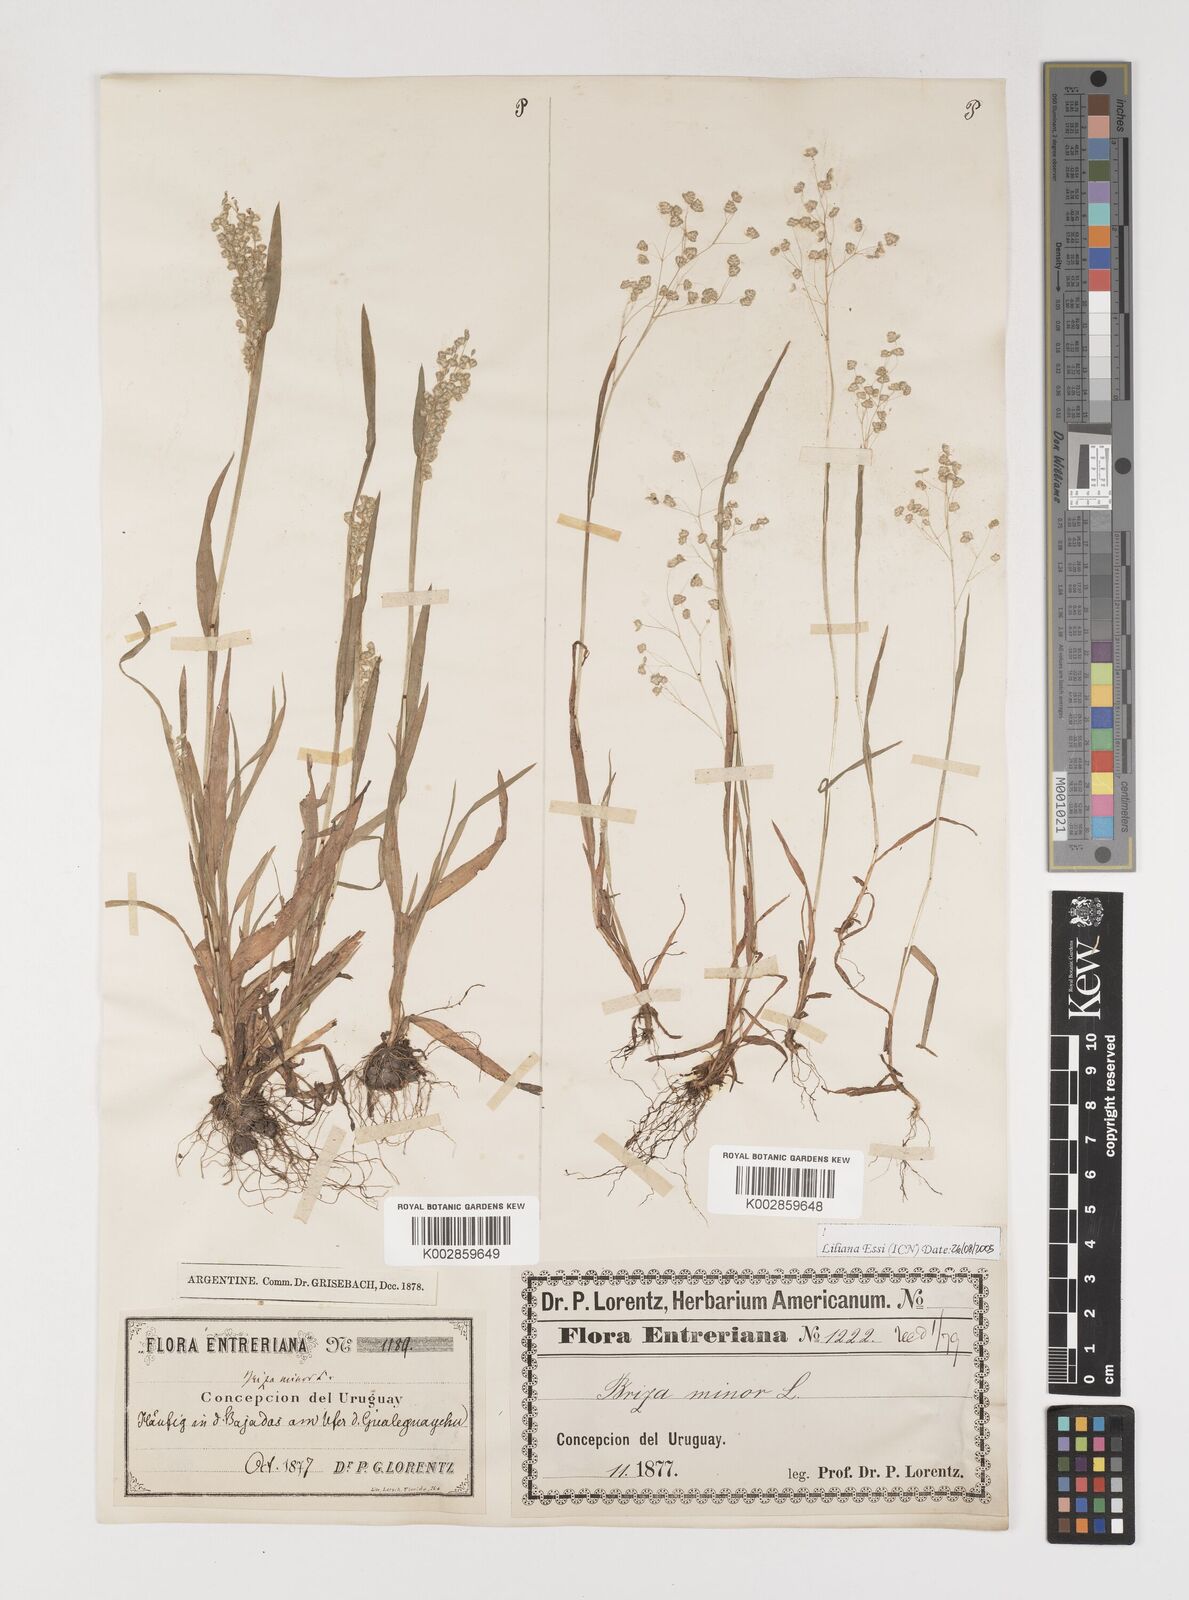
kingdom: Plantae
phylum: Tracheophyta
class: Liliopsida
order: Poales
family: Poaceae
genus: Briza
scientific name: Briza minor
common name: Lesser quaking-grass
